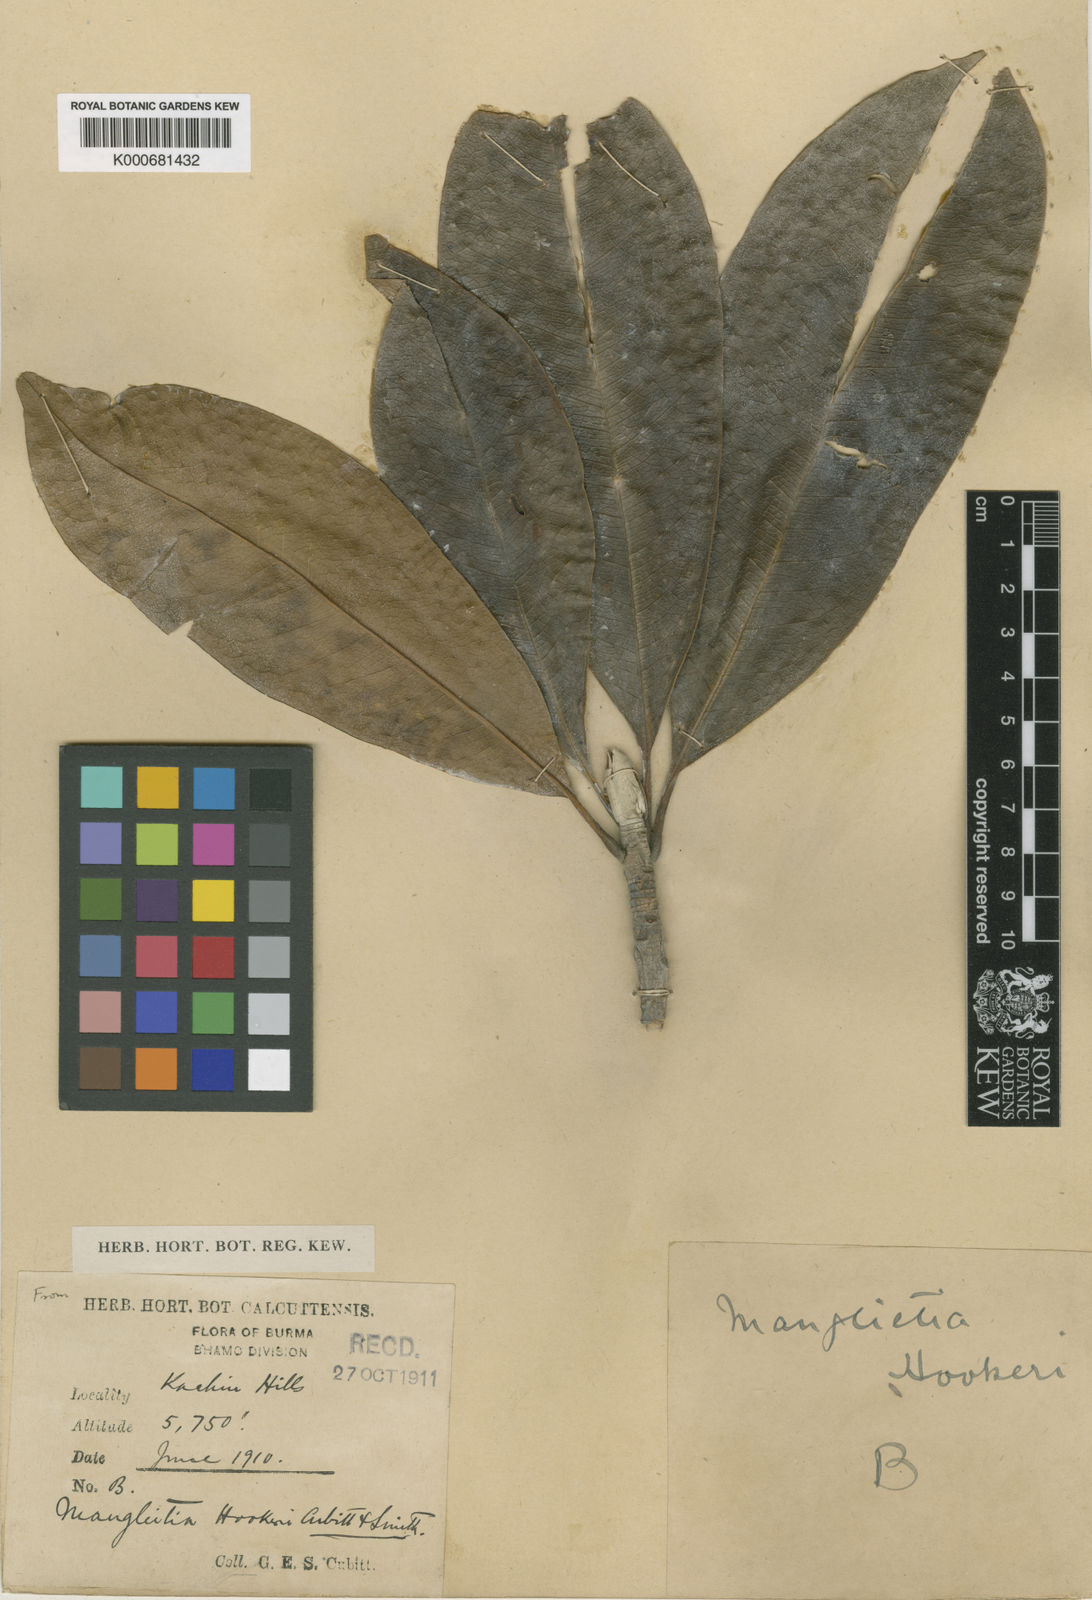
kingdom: Plantae
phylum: Tracheophyta
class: Magnoliopsida
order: Magnoliales
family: Magnoliaceae
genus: Magnolia
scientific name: Magnolia insignis
